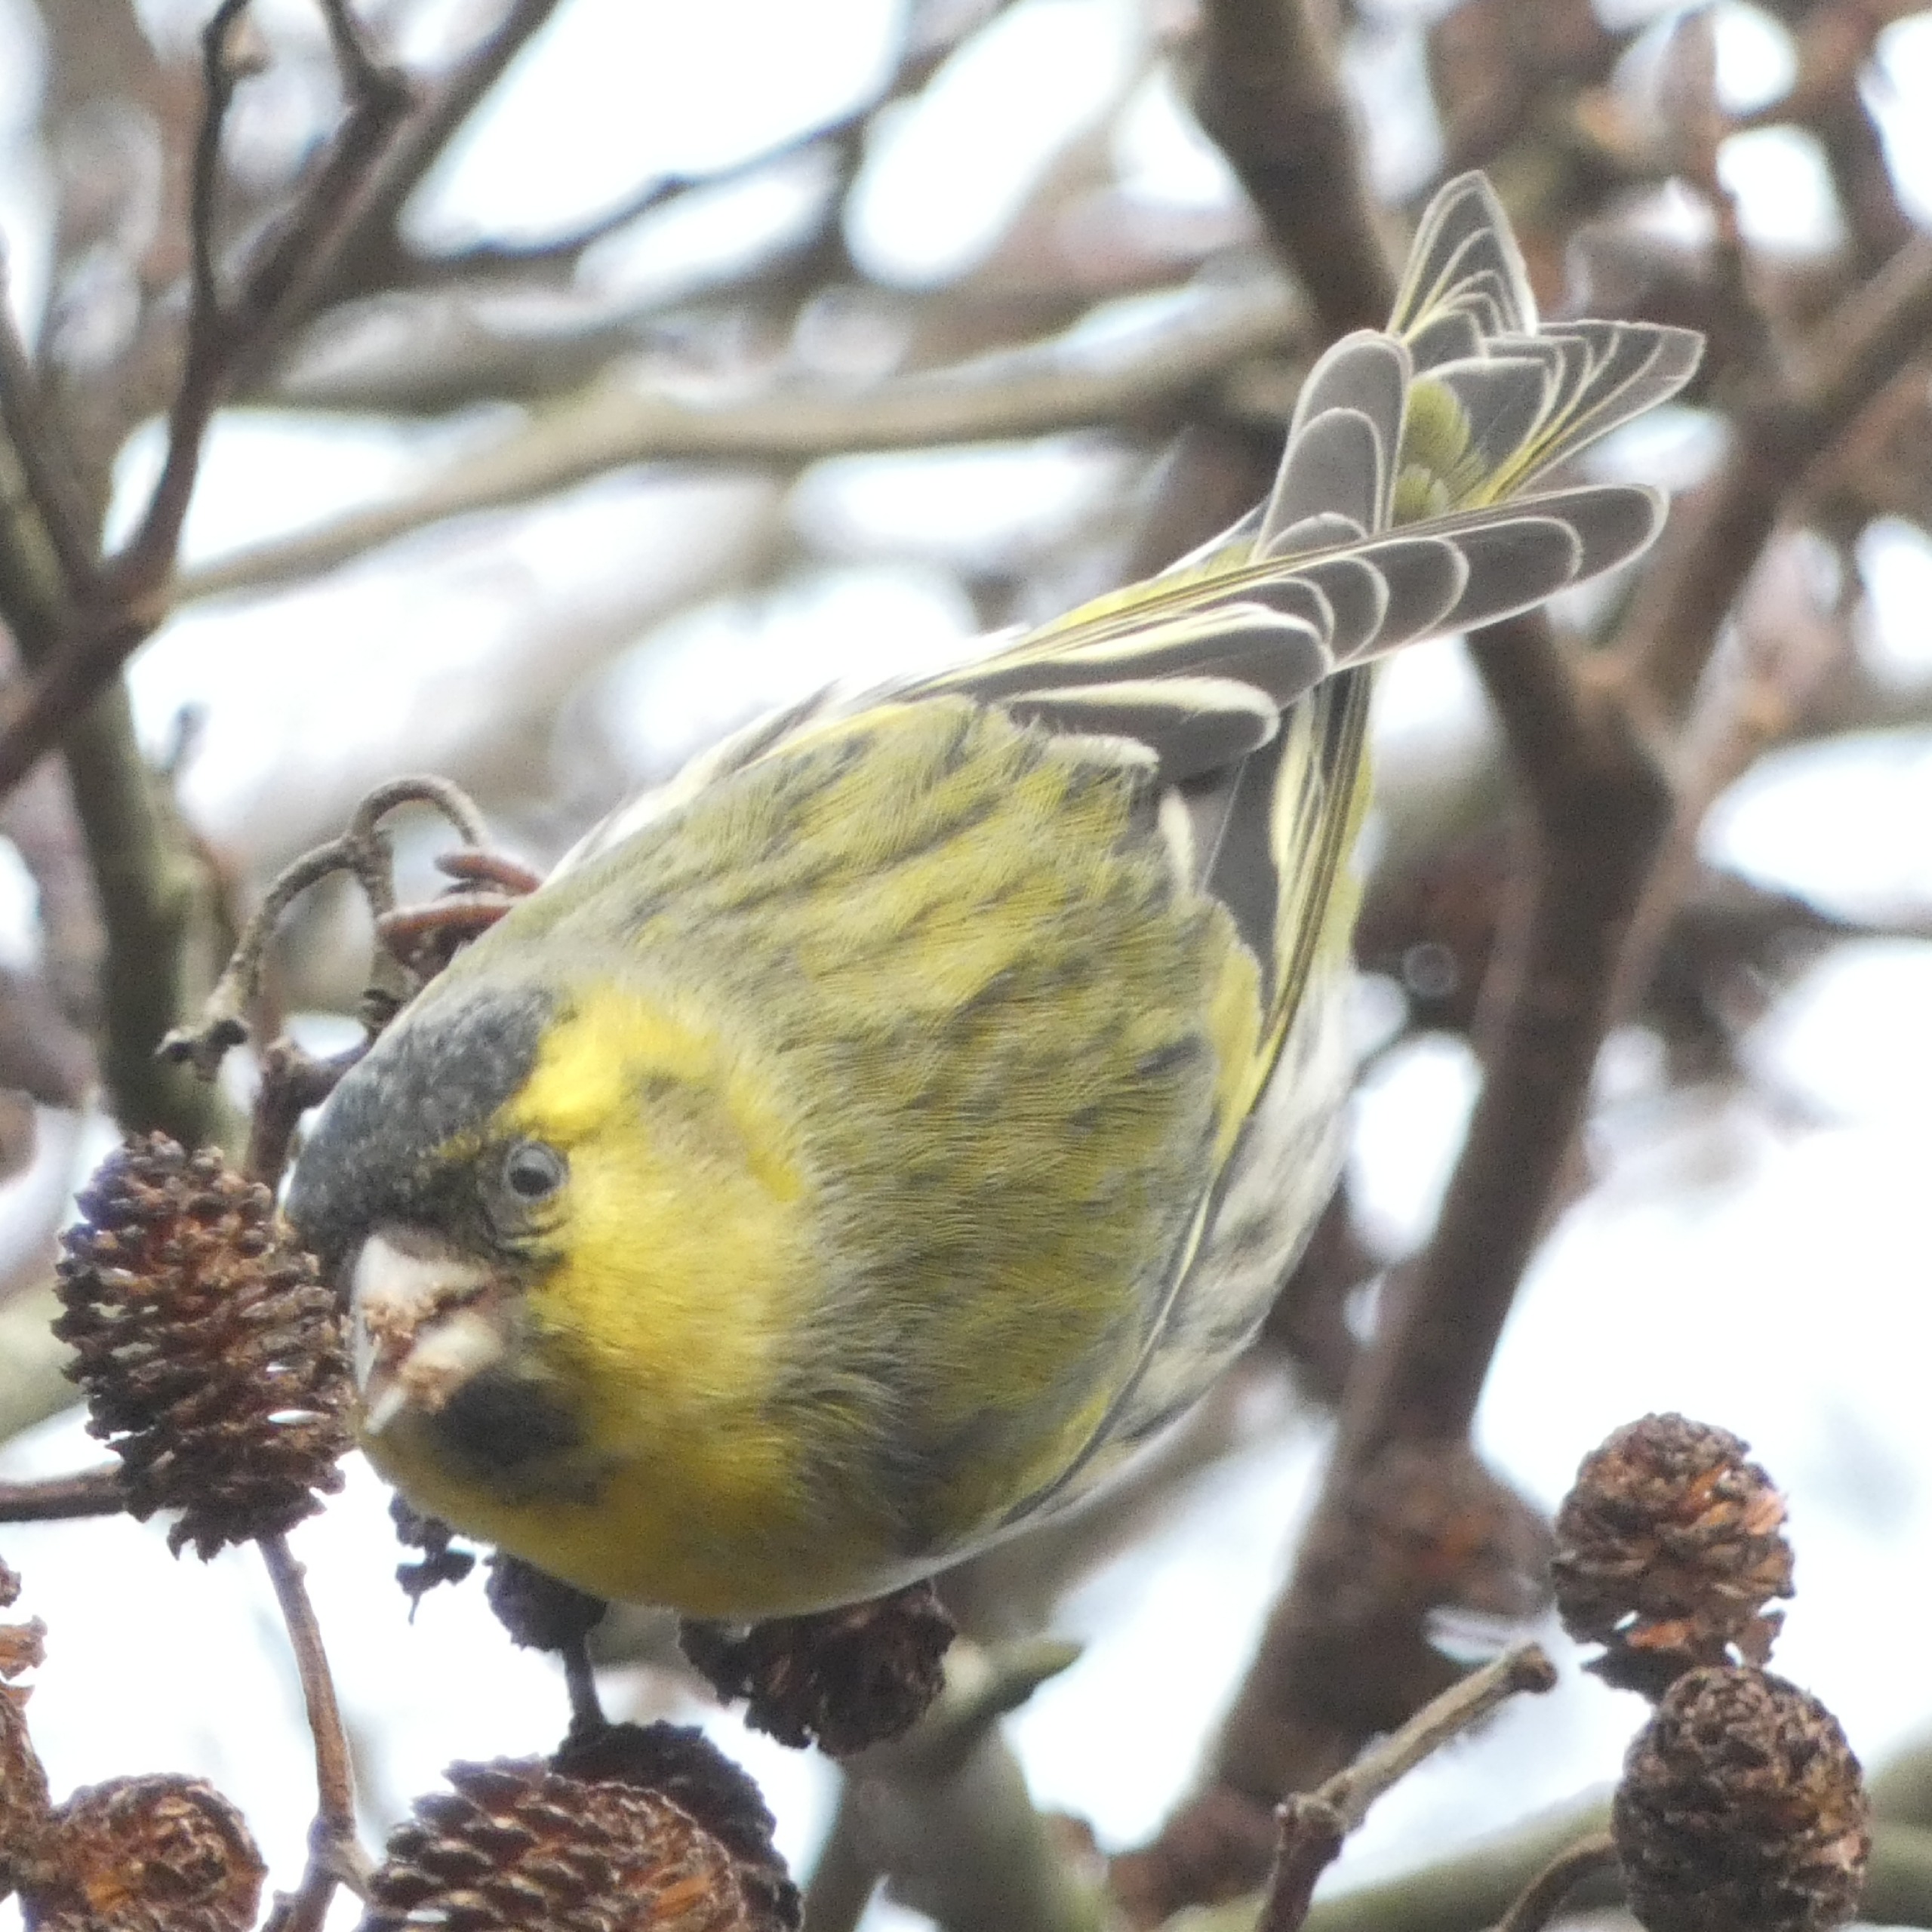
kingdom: Animalia
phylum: Chordata
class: Aves
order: Passeriformes
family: Fringillidae
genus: Spinus
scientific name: Spinus spinus
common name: Grønsisken
